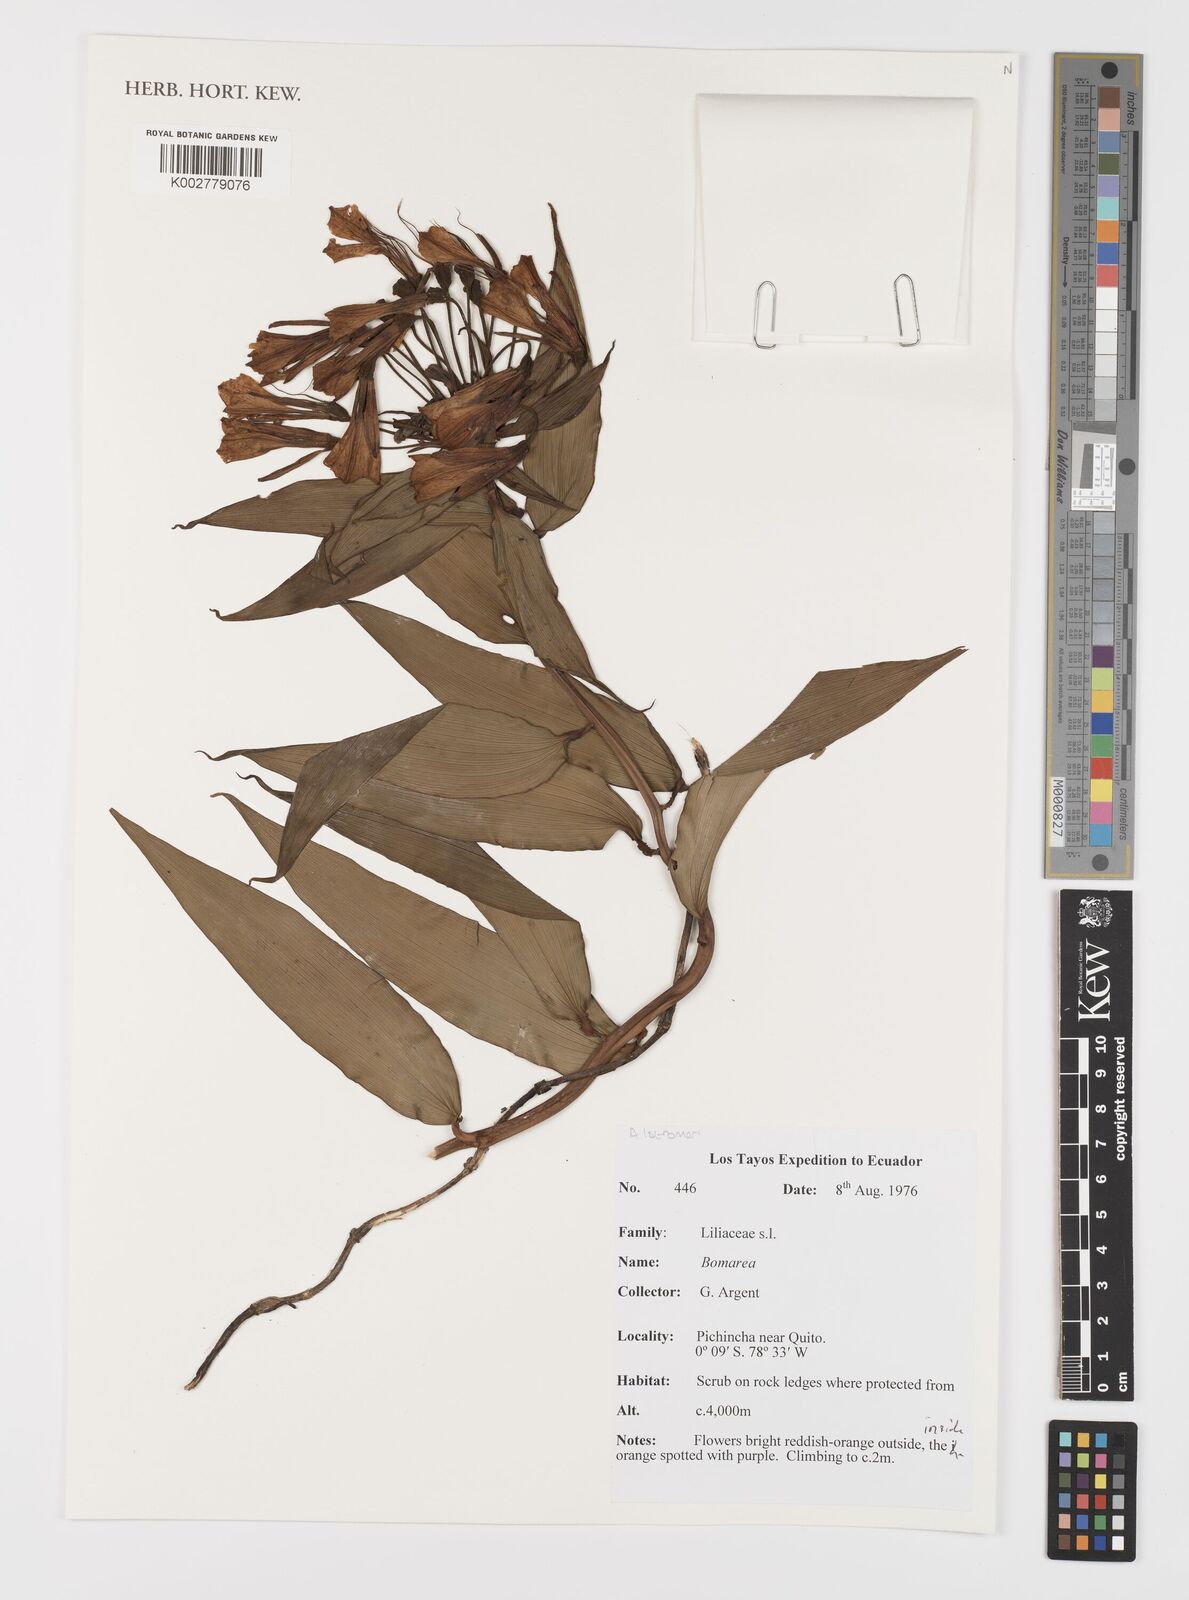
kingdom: Plantae
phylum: Tracheophyta
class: Liliopsida
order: Liliales
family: Alstroemeriaceae
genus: Bomarea
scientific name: Bomarea
